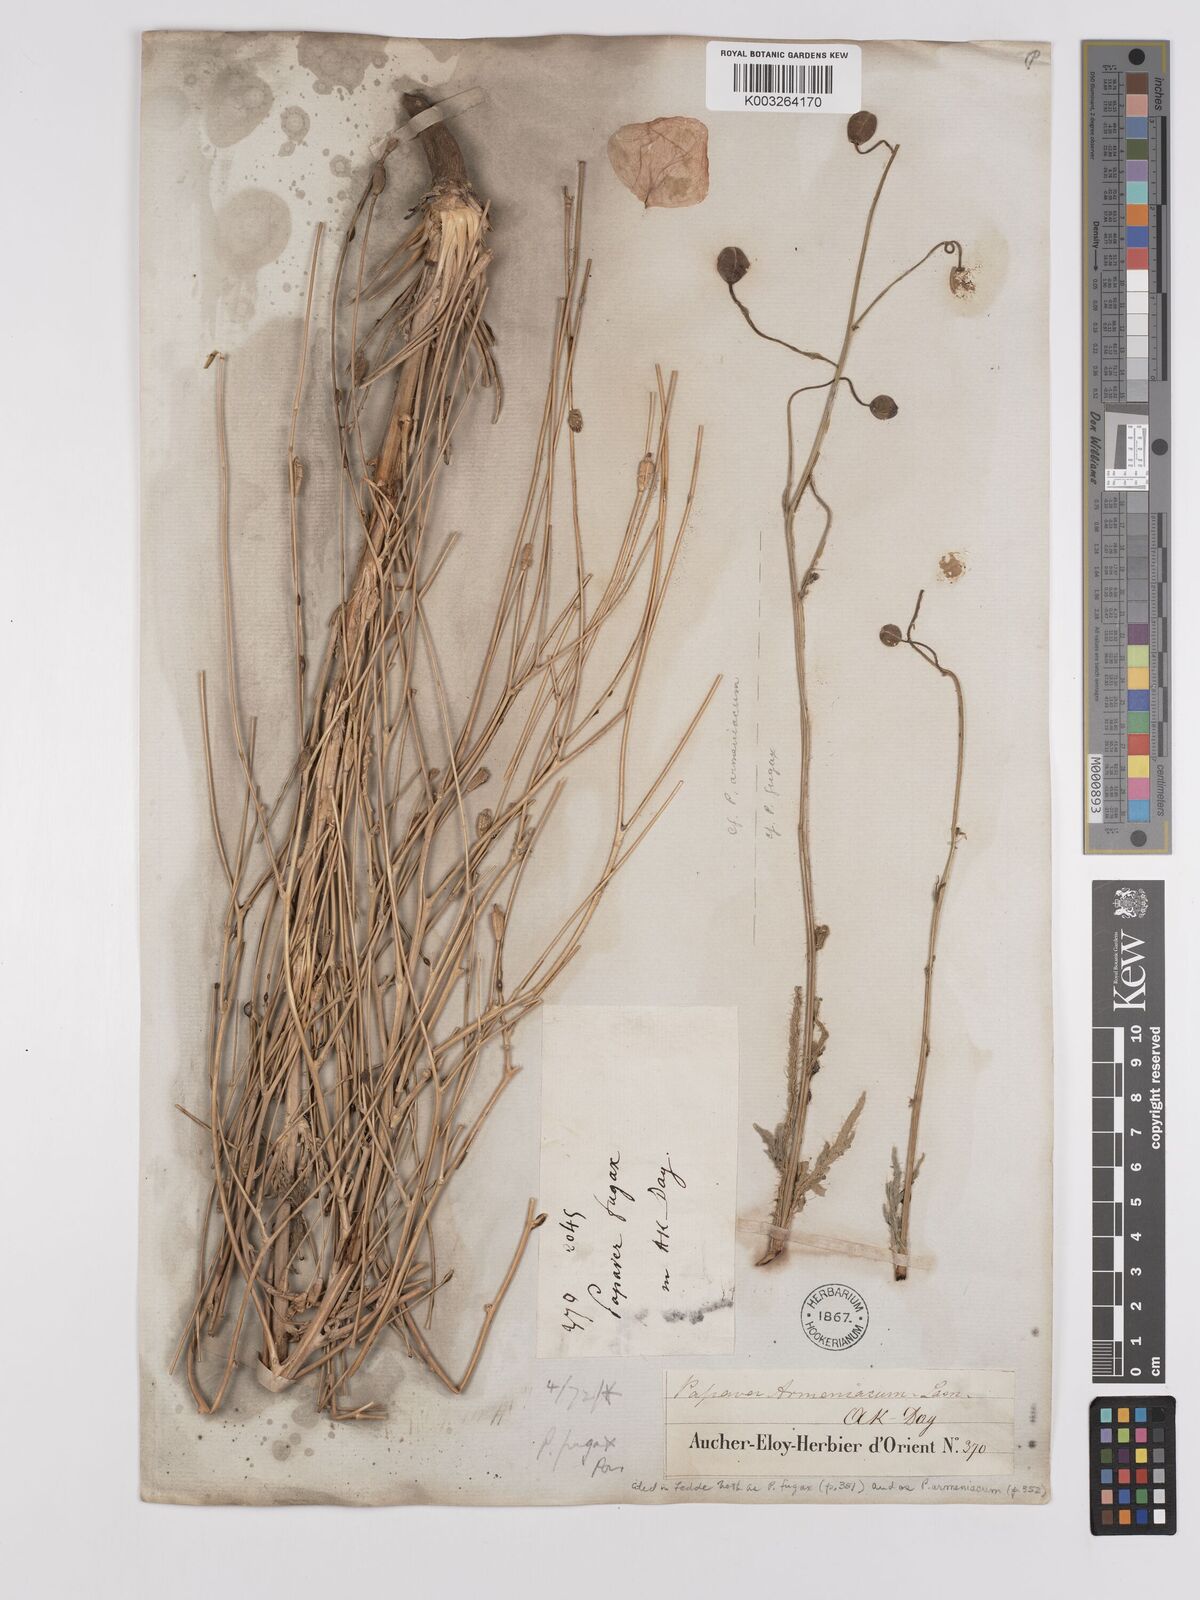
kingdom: Plantae
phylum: Tracheophyta
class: Magnoliopsida
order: Ranunculales
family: Papaveraceae
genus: Papaver
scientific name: Papaver armeniacum
